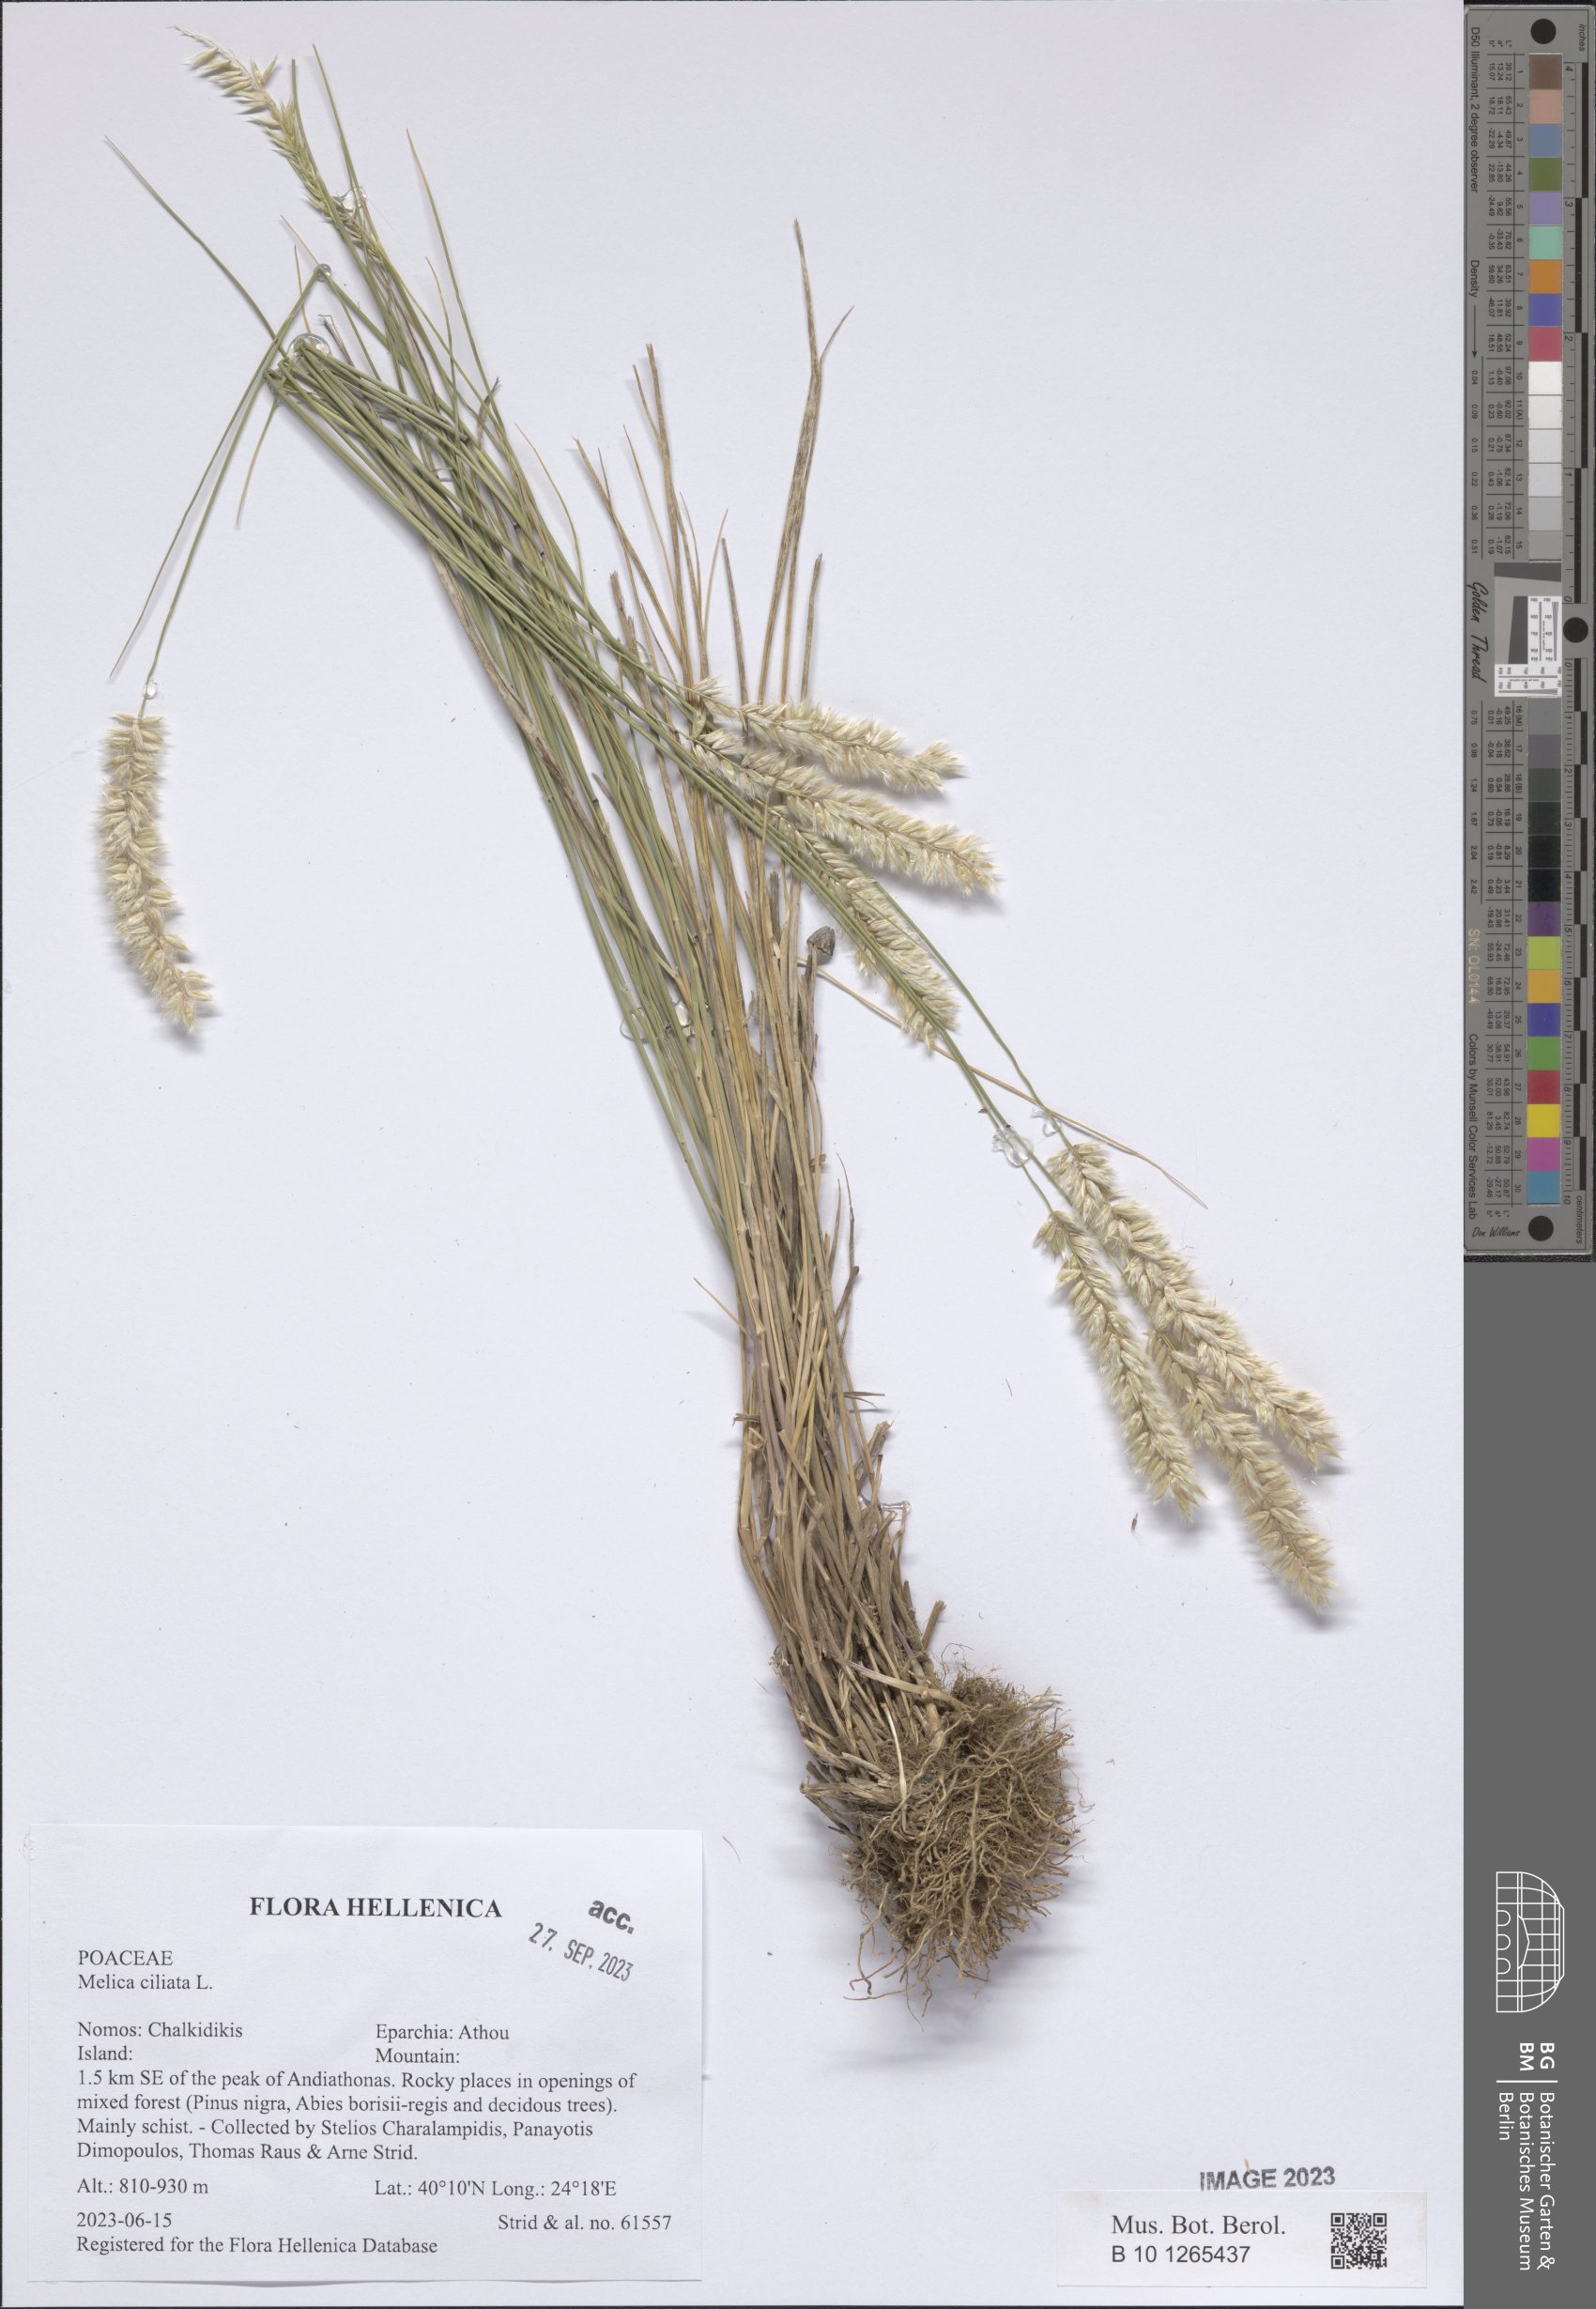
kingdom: Plantae
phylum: Tracheophyta
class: Liliopsida
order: Poales
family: Poaceae
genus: Melica
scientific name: Melica ciliata
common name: Hairy melicgrass
